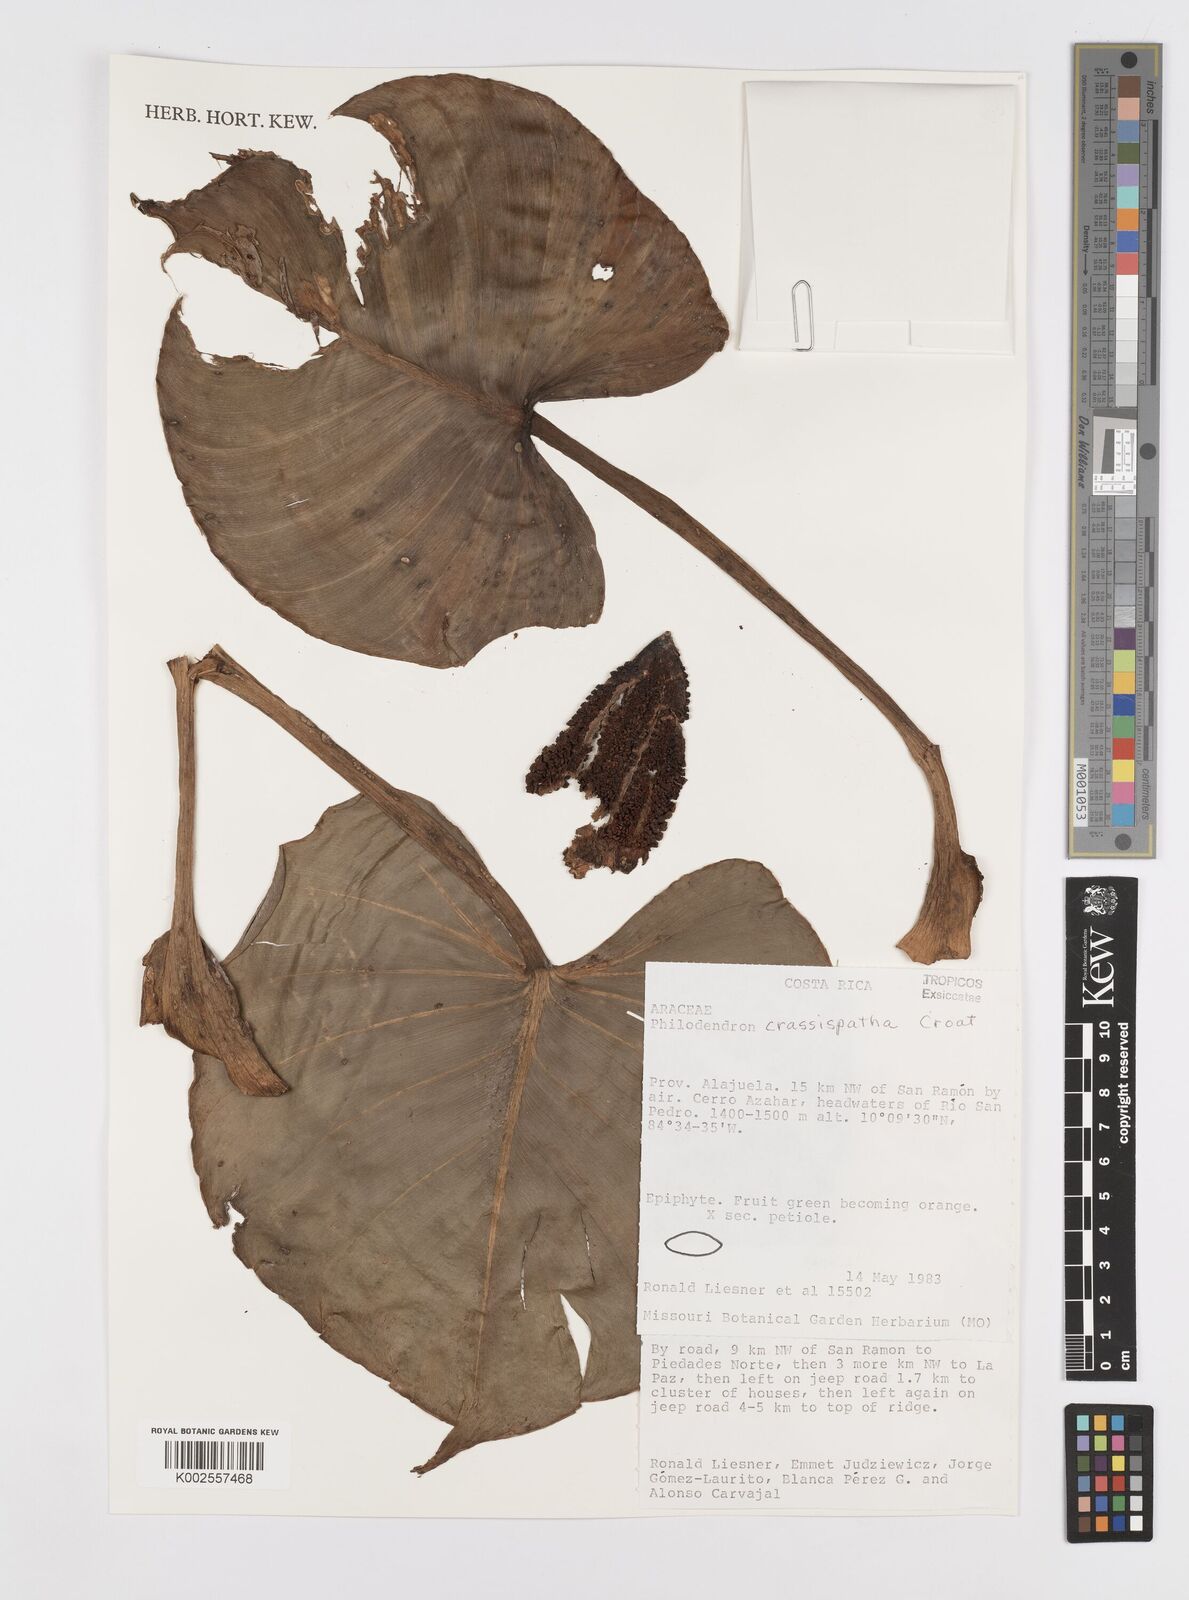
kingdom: Plantae
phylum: Tracheophyta
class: Liliopsida
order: Alismatales
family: Araceae
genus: Philodendron
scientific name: Philodendron crassispathum
